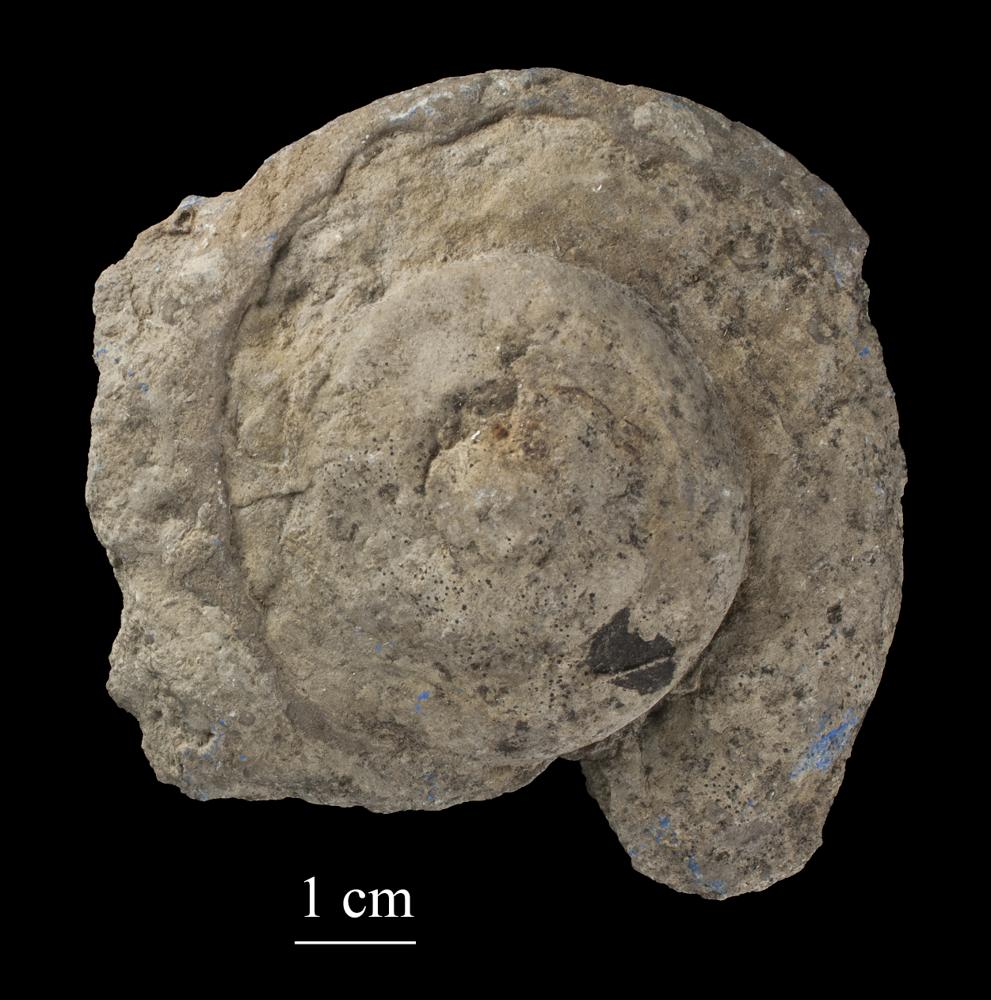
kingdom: Animalia
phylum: Mollusca
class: Gastropoda
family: Euomphalidae
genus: Euomphalus
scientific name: Euomphalus
